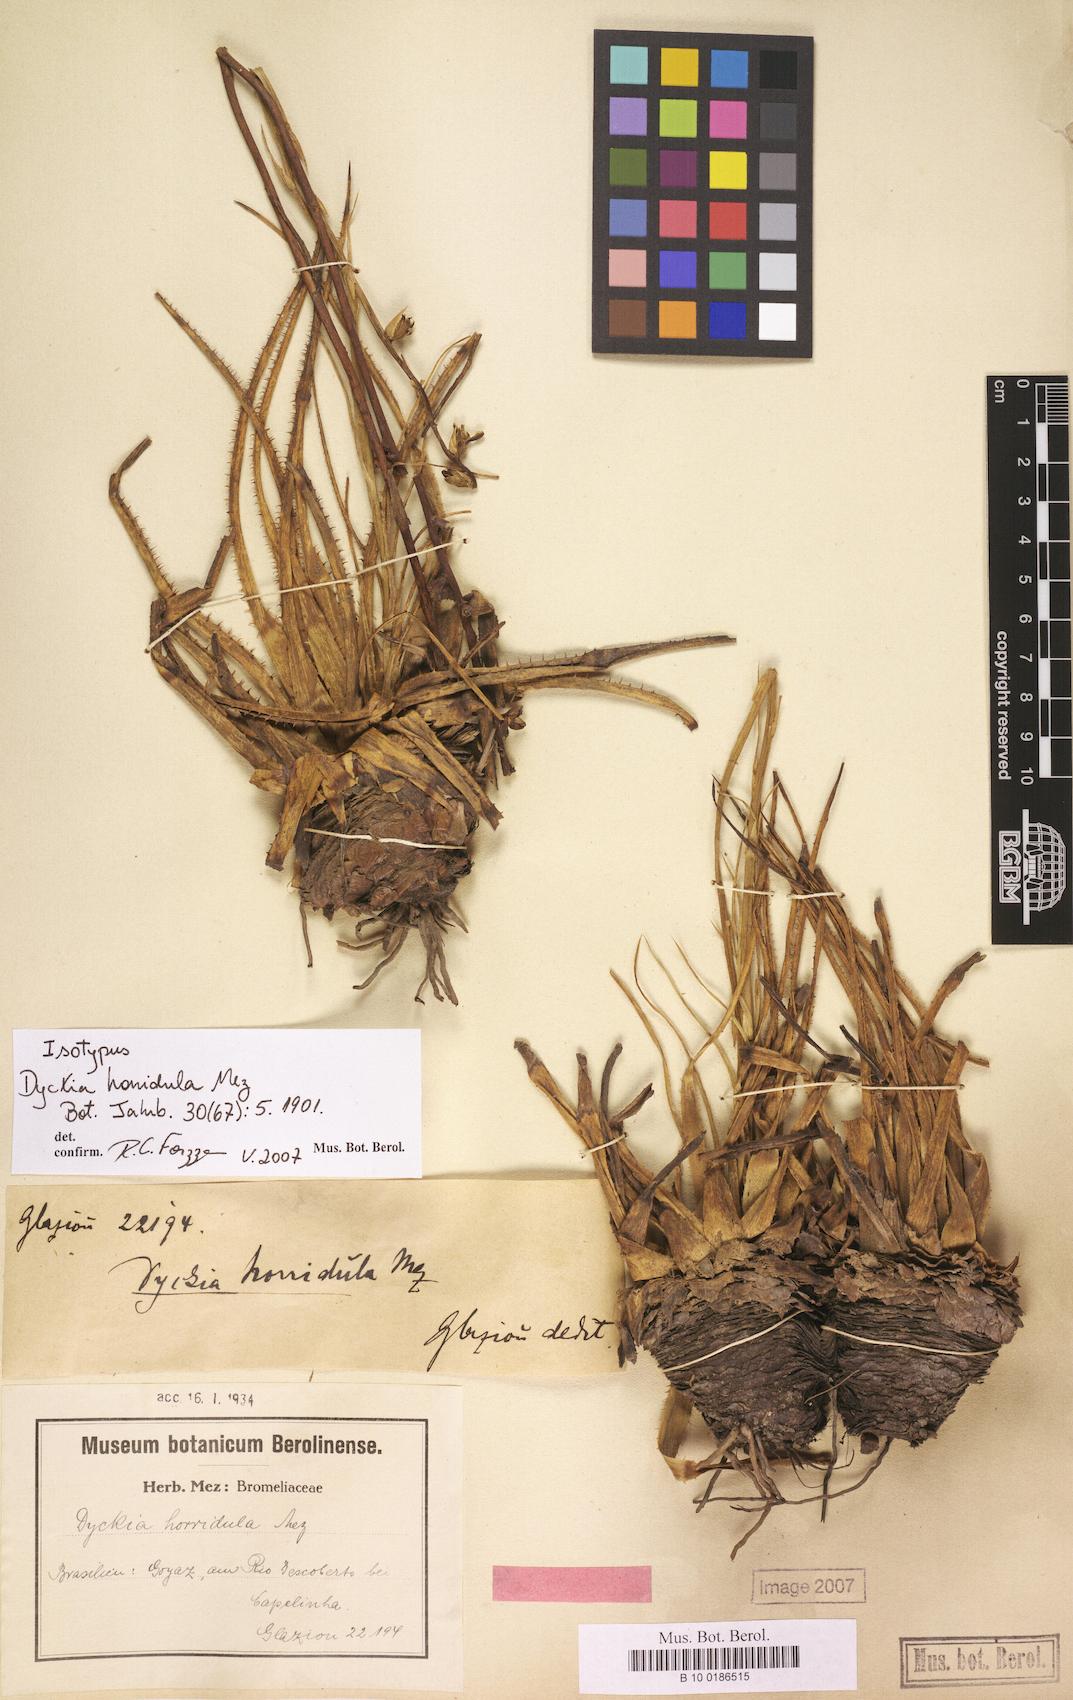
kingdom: Plantae
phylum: Tracheophyta
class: Liliopsida
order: Poales
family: Bromeliaceae
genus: Dyckia
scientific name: Dyckia horridula
